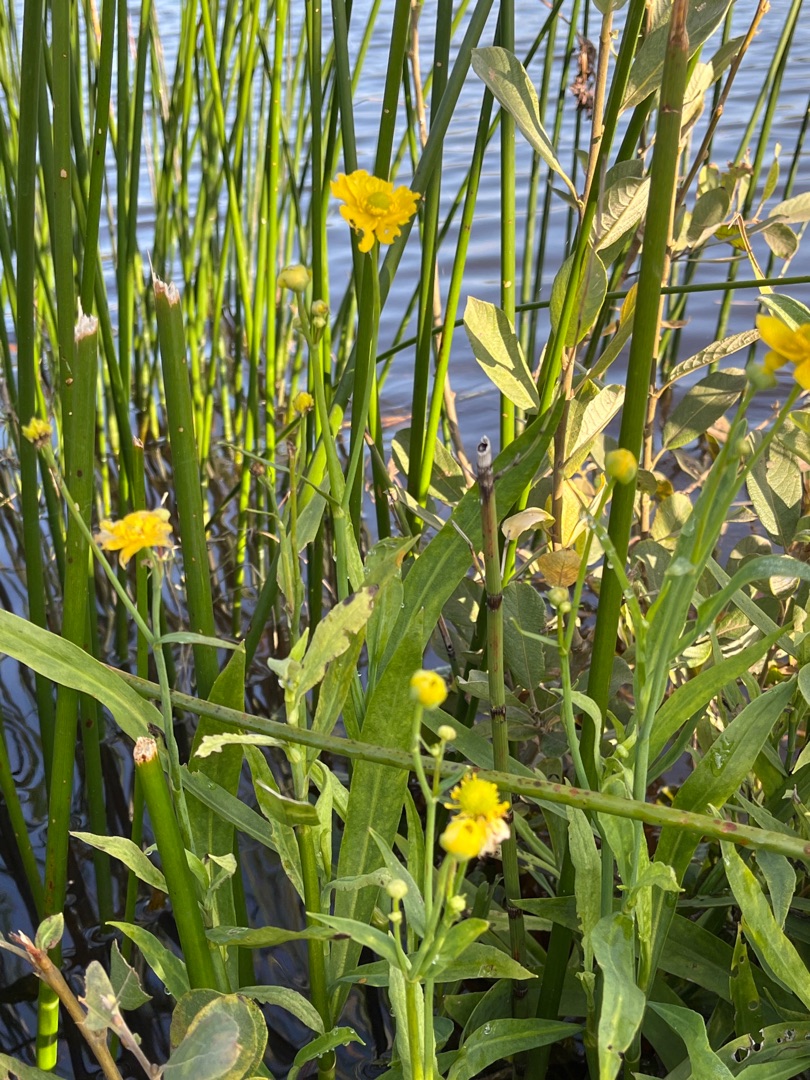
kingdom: Plantae
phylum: Tracheophyta
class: Magnoliopsida
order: Ranunculales
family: Ranunculaceae
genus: Ranunculus
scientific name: Ranunculus lingua
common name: Langbladet ranunkel
